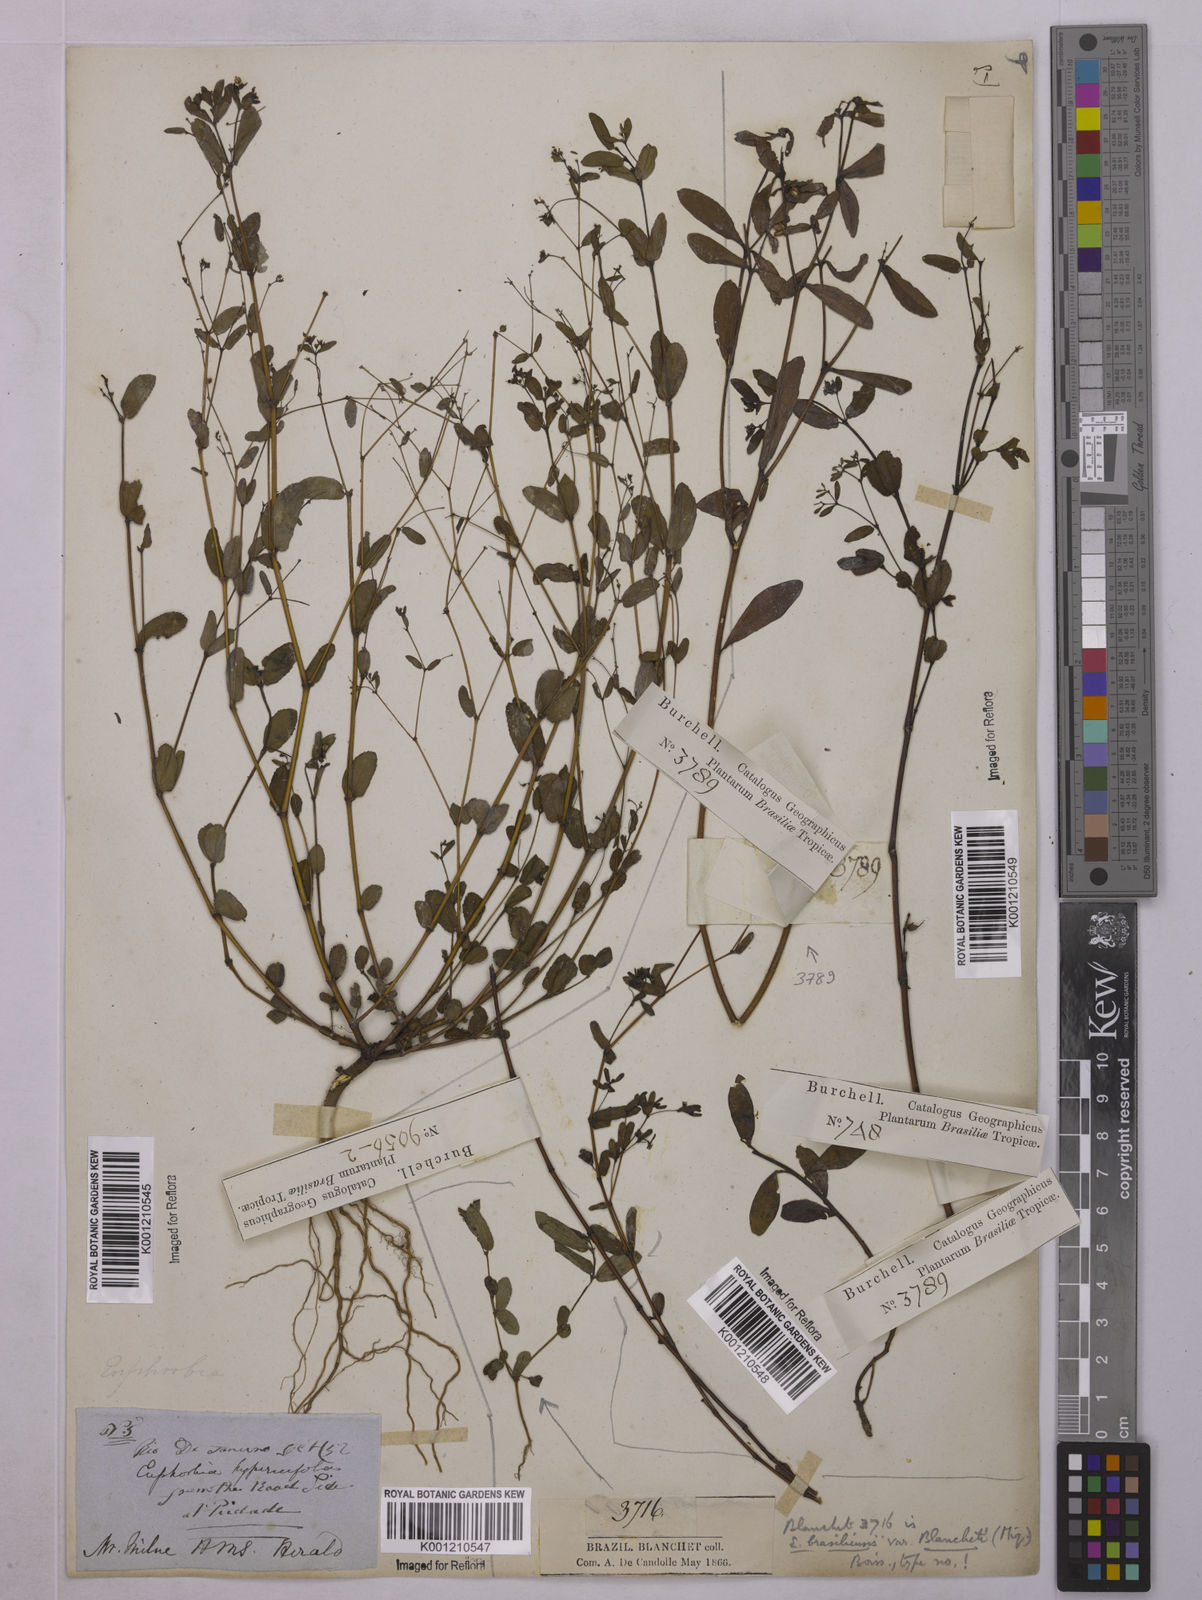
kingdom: Plantae
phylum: Tracheophyta
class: Magnoliopsida
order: Malpighiales
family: Euphorbiaceae
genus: Euphorbia
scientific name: Euphorbia hypericifolia
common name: Graceful sandmat
